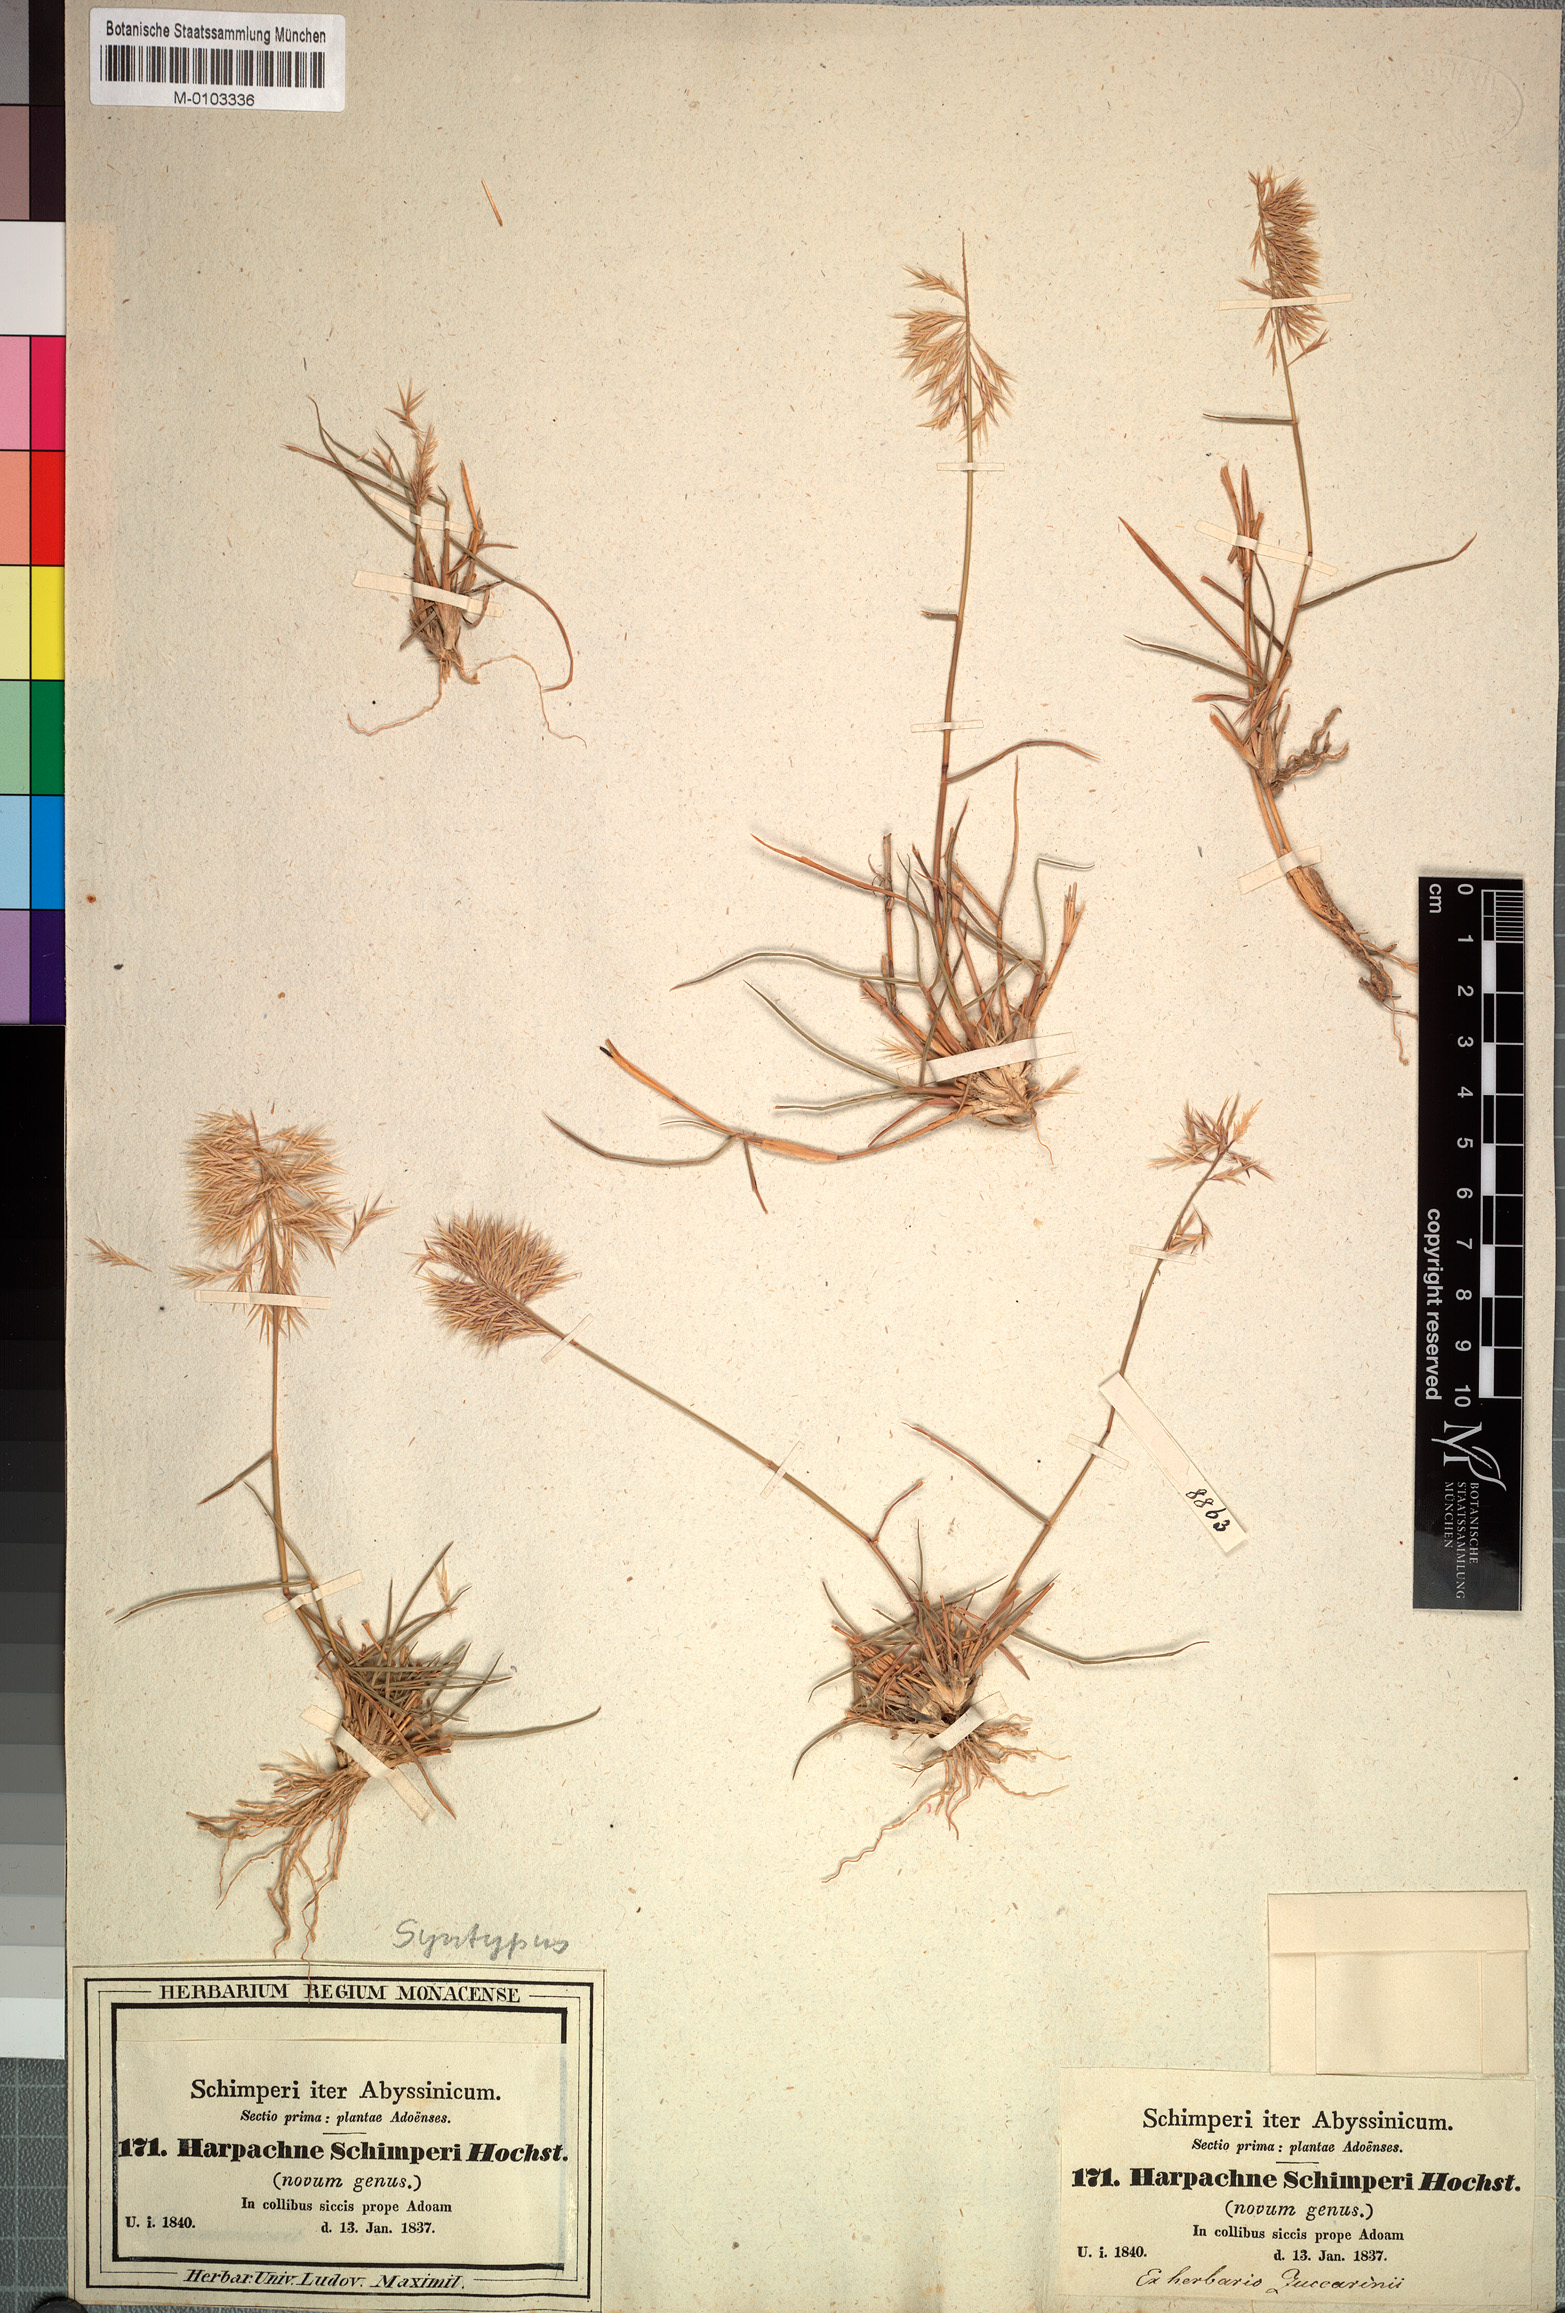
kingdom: Plantae
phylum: Tracheophyta
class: Liliopsida
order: Poales
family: Poaceae
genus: Harpachne
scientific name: Harpachne schimperi
